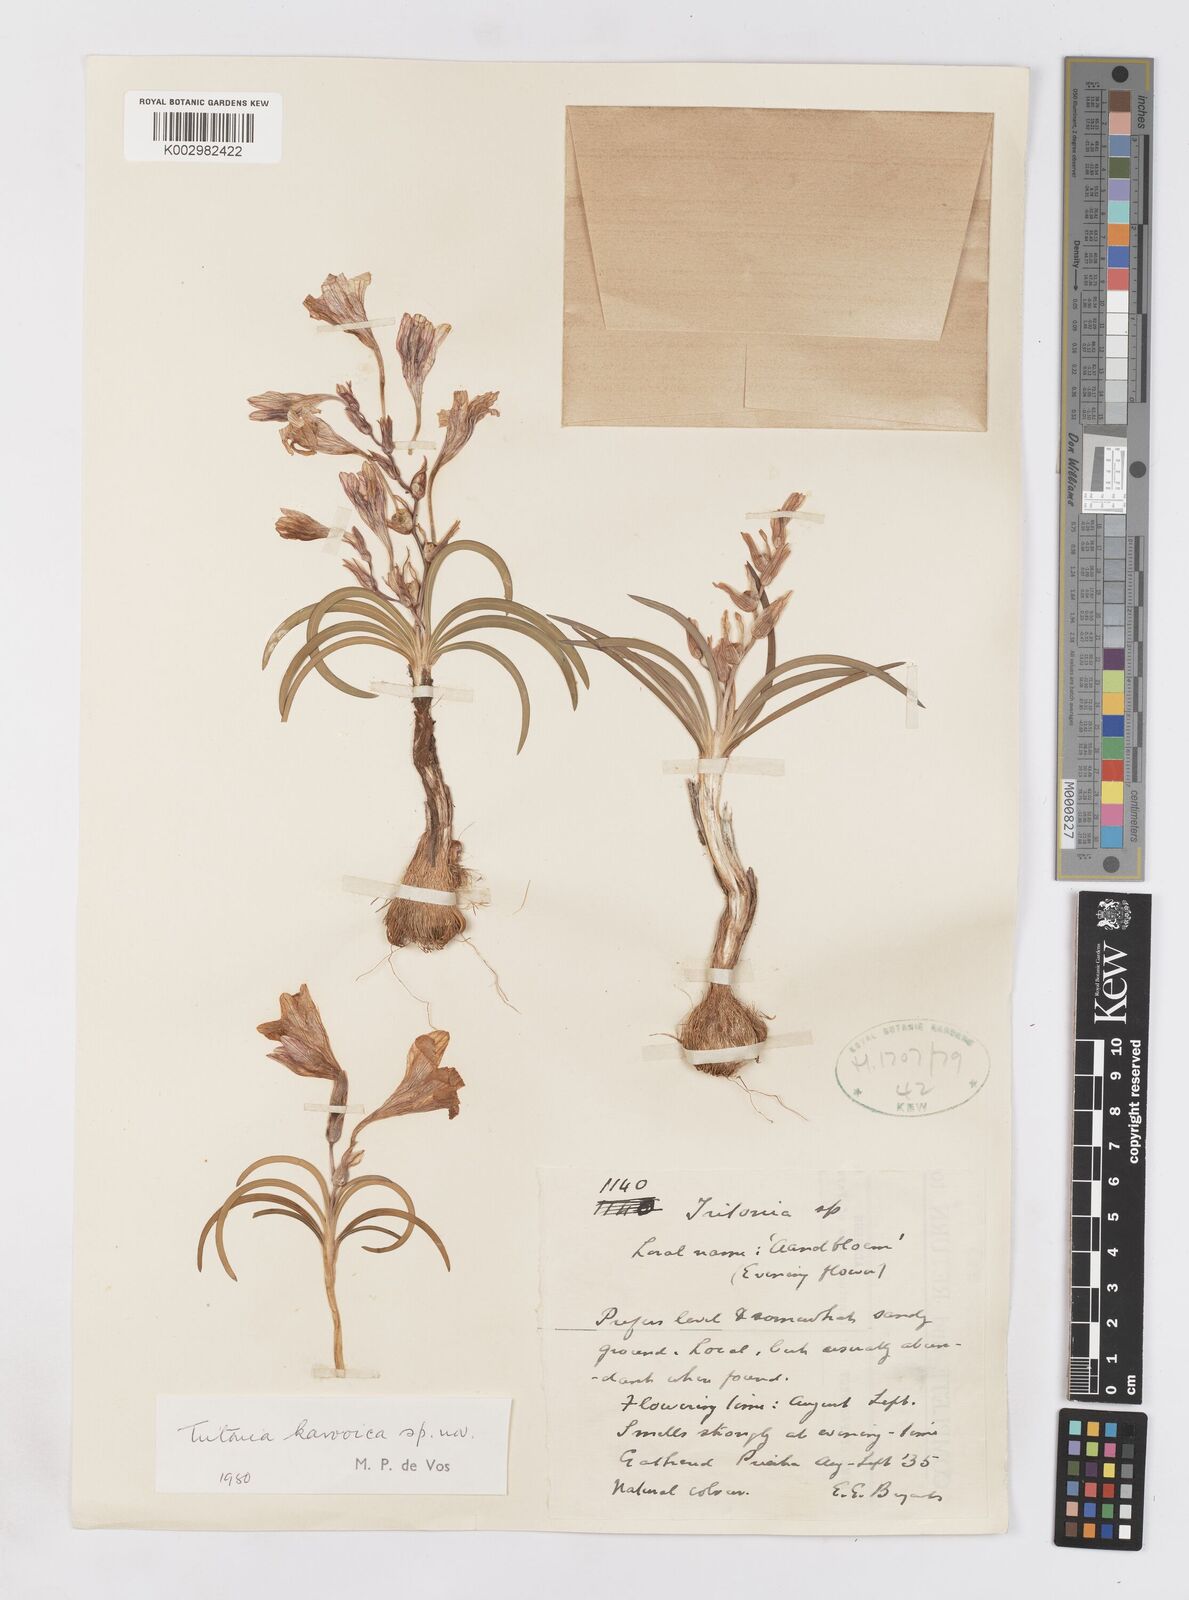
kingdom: Plantae
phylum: Tracheophyta
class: Liliopsida
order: Asparagales
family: Iridaceae
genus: Tritonia
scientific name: Tritonia karooica
